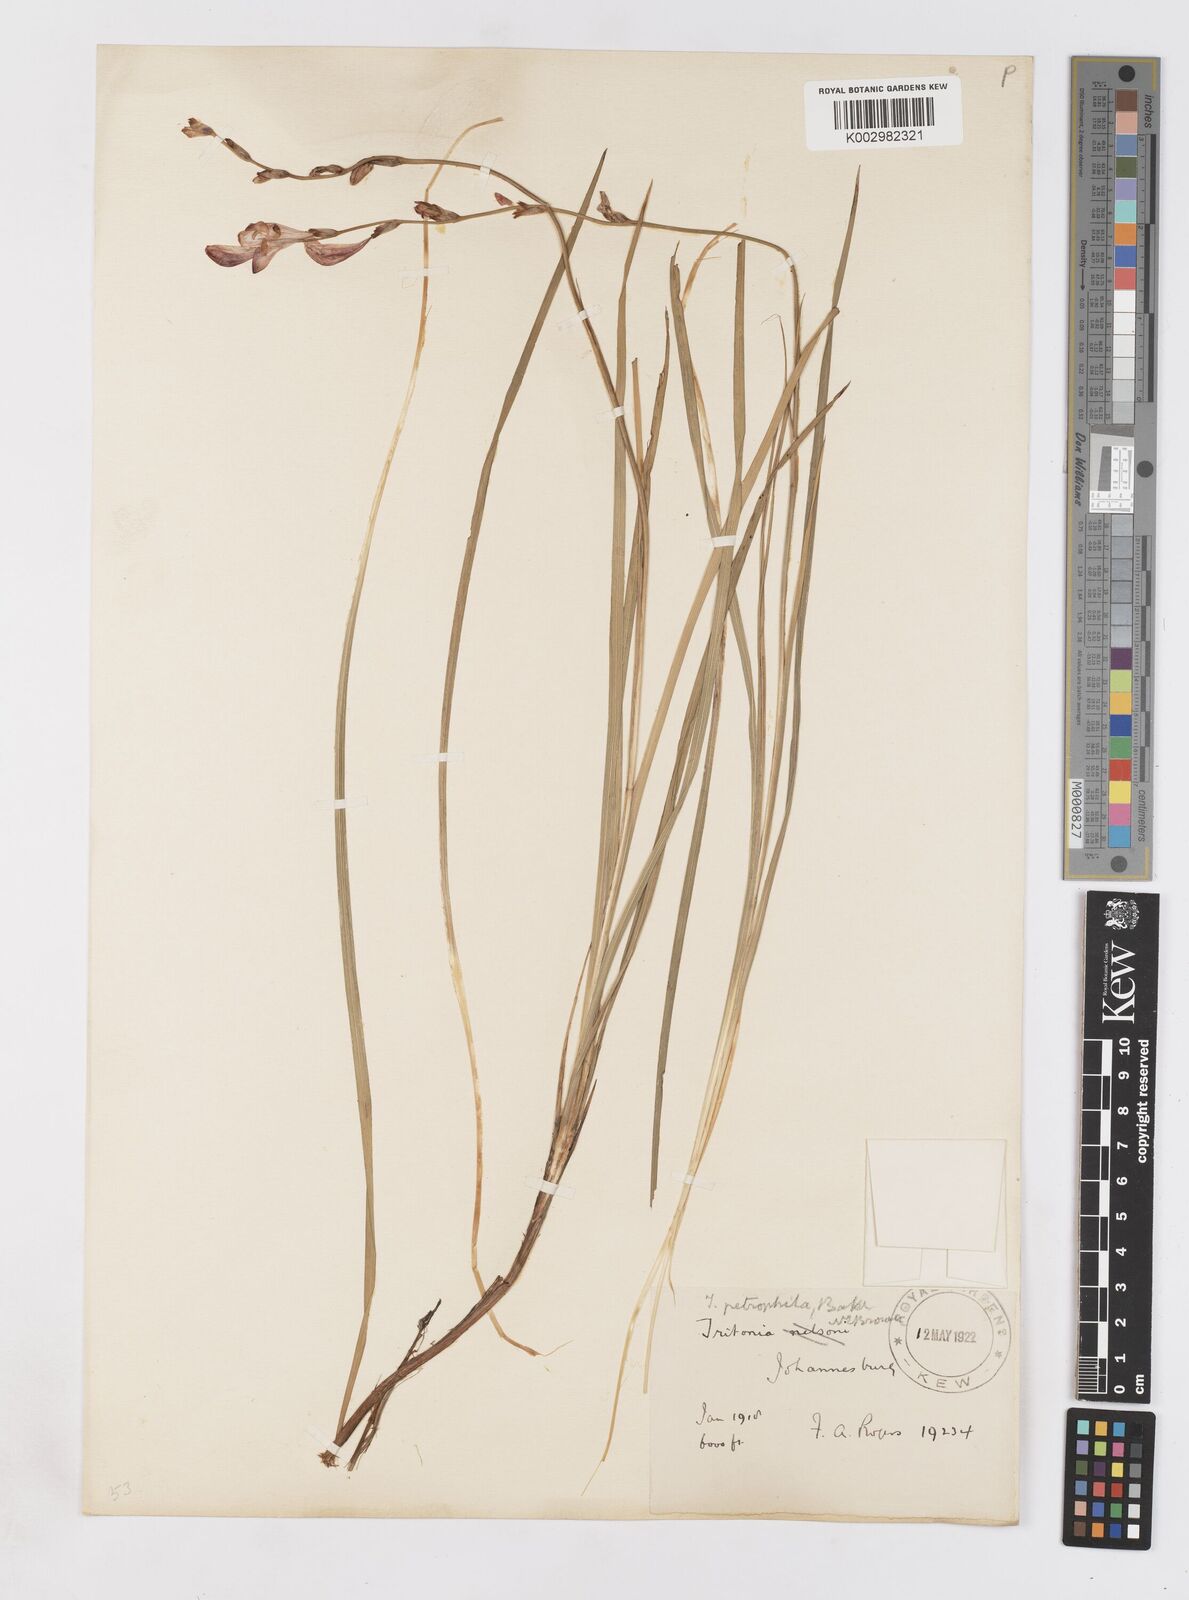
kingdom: Plantae
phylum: Tracheophyta
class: Liliopsida
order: Asparagales
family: Iridaceae
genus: Tritonia
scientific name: Tritonia nelsonii
